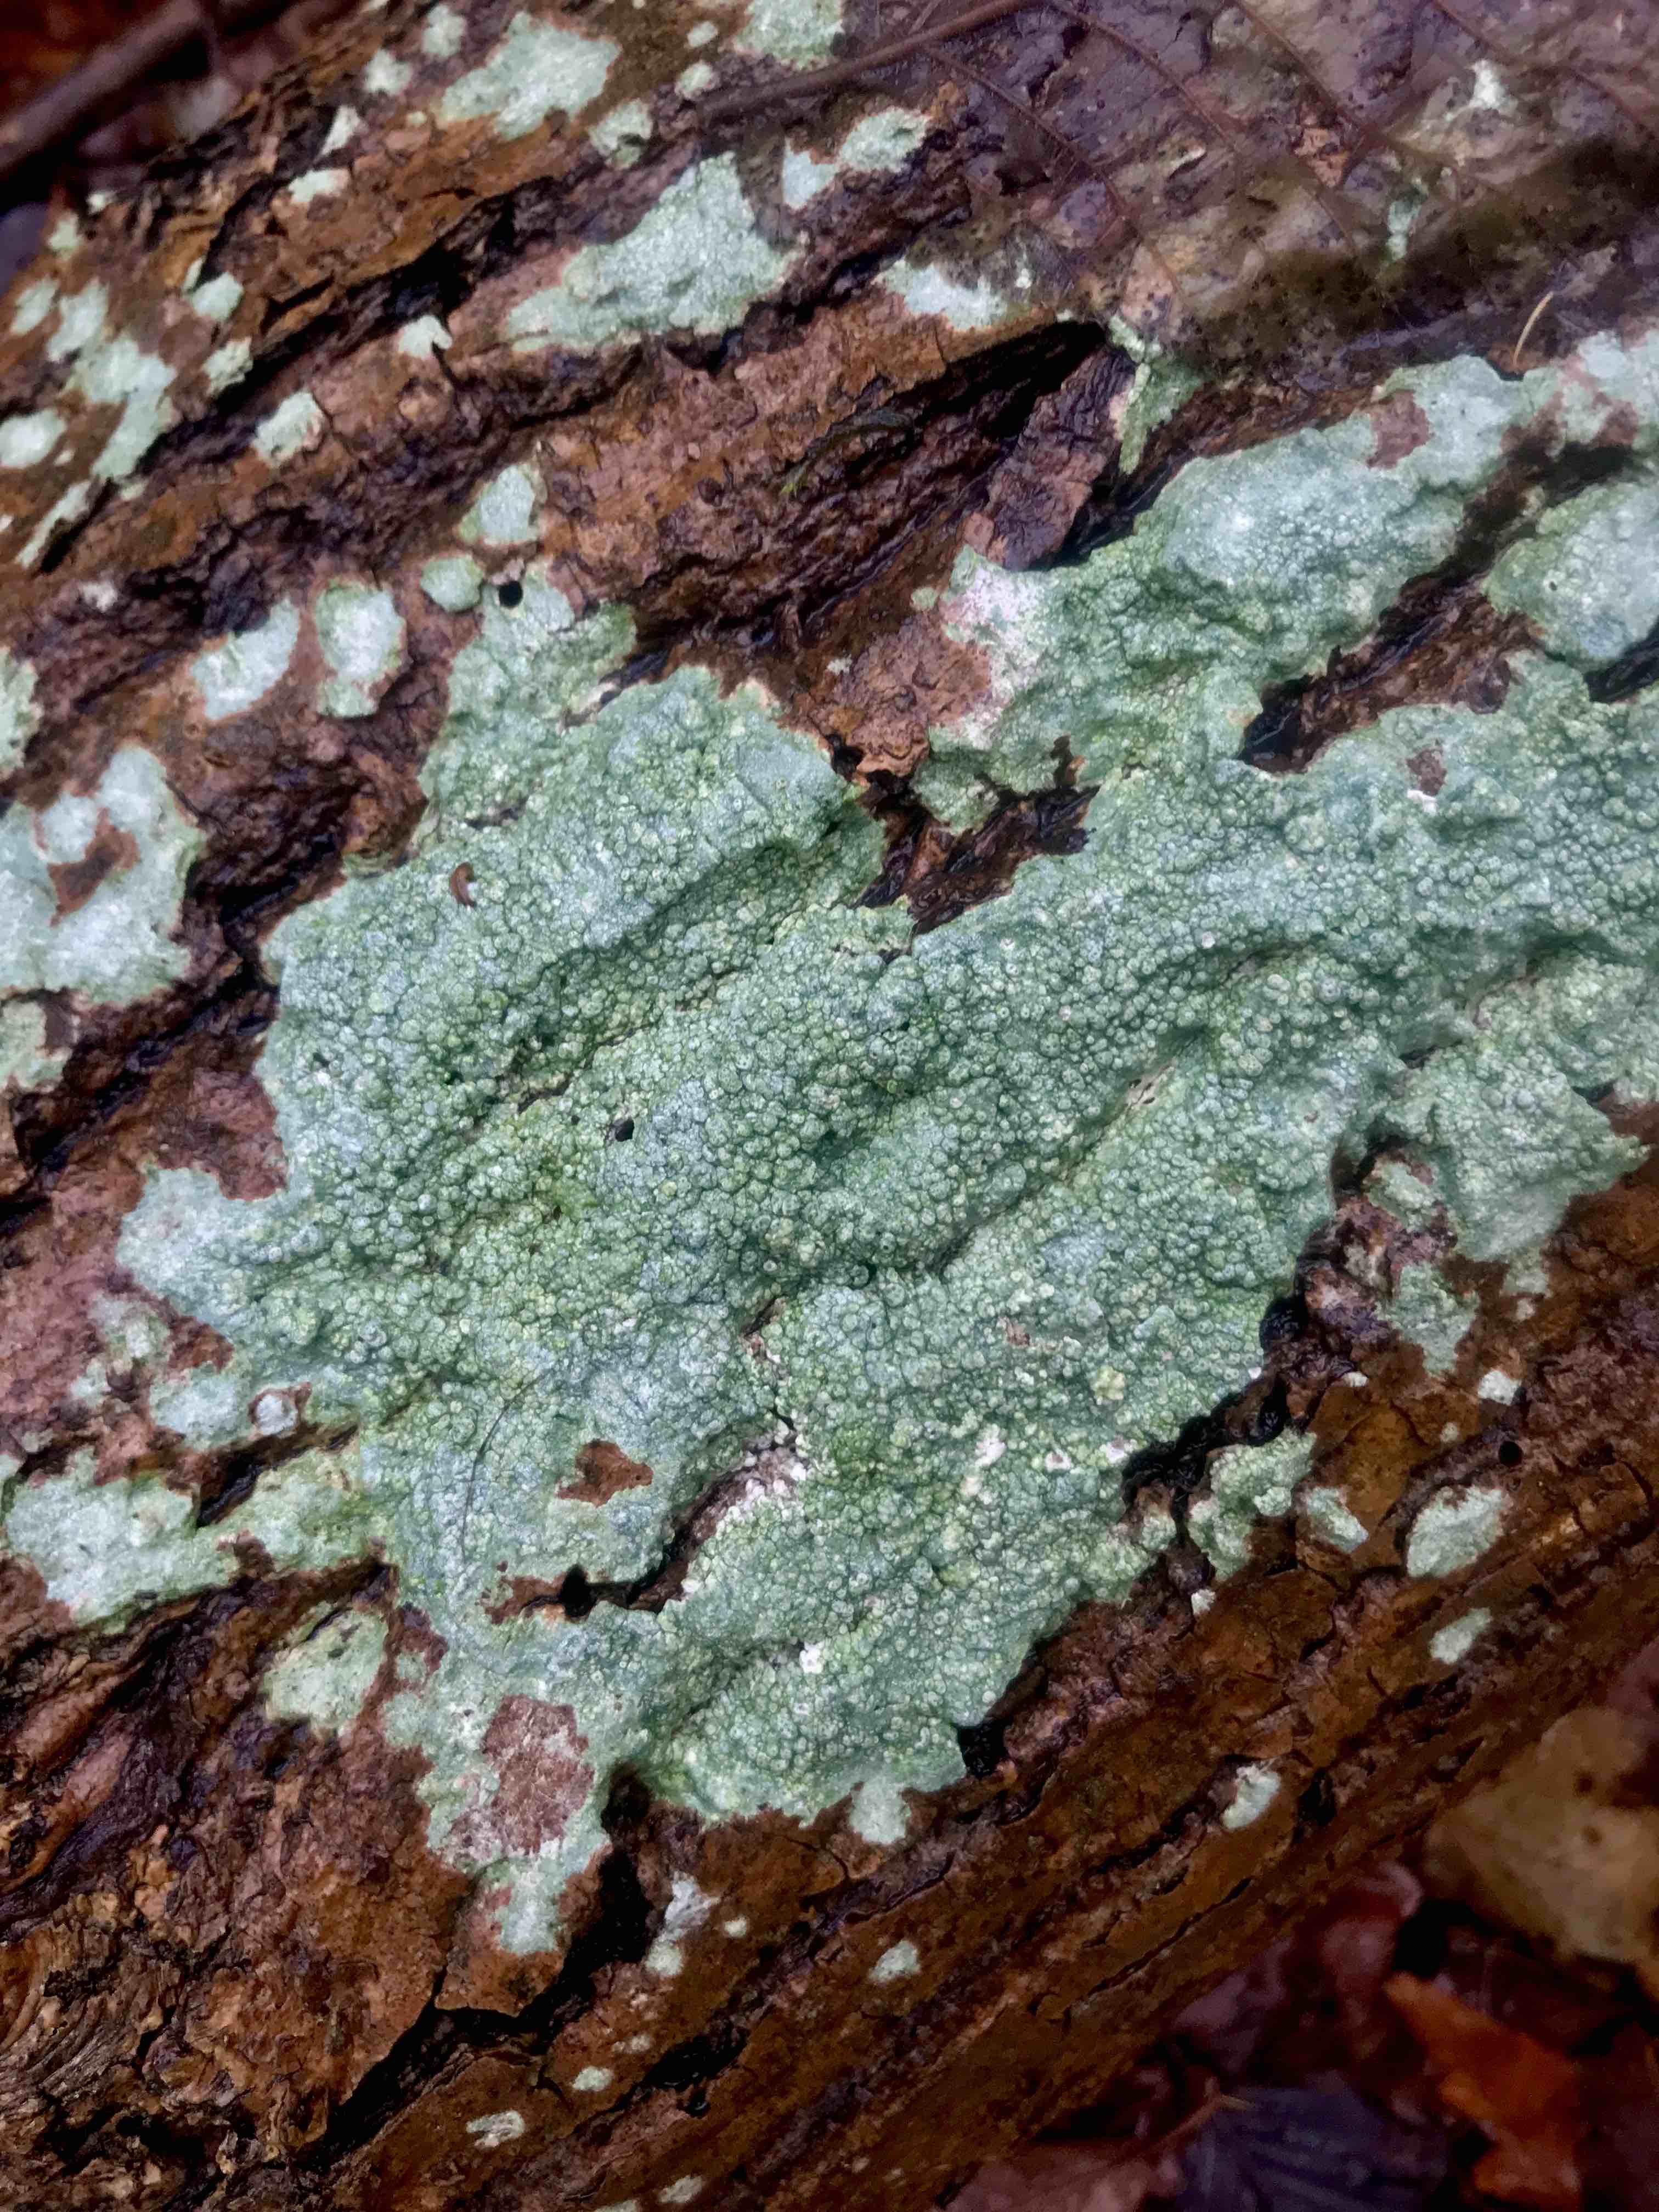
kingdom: Fungi
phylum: Ascomycota
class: Lecanoromycetes
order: Pertusariales
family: Pertusariaceae
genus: Pertusaria
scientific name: Pertusaria pertusa
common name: almindelig prikvortelav
